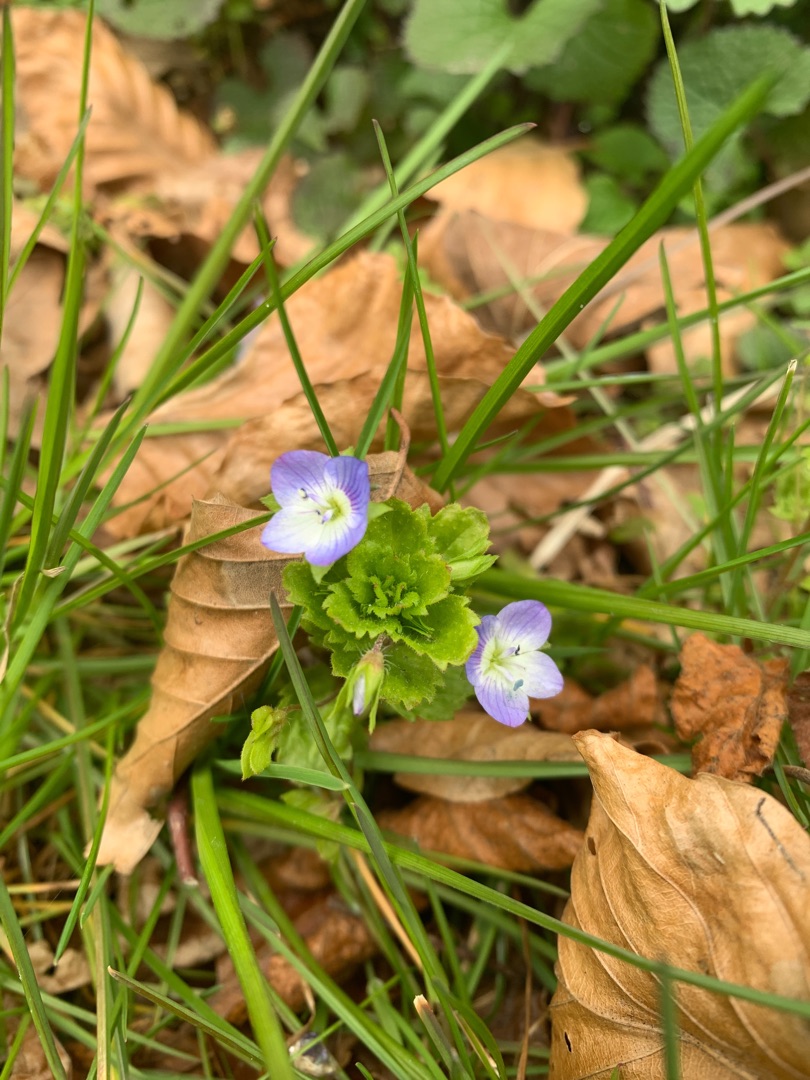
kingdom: Plantae
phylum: Tracheophyta
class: Magnoliopsida
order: Lamiales
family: Plantaginaceae
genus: Veronica
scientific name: Veronica persica
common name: Storkronet ærenpris
